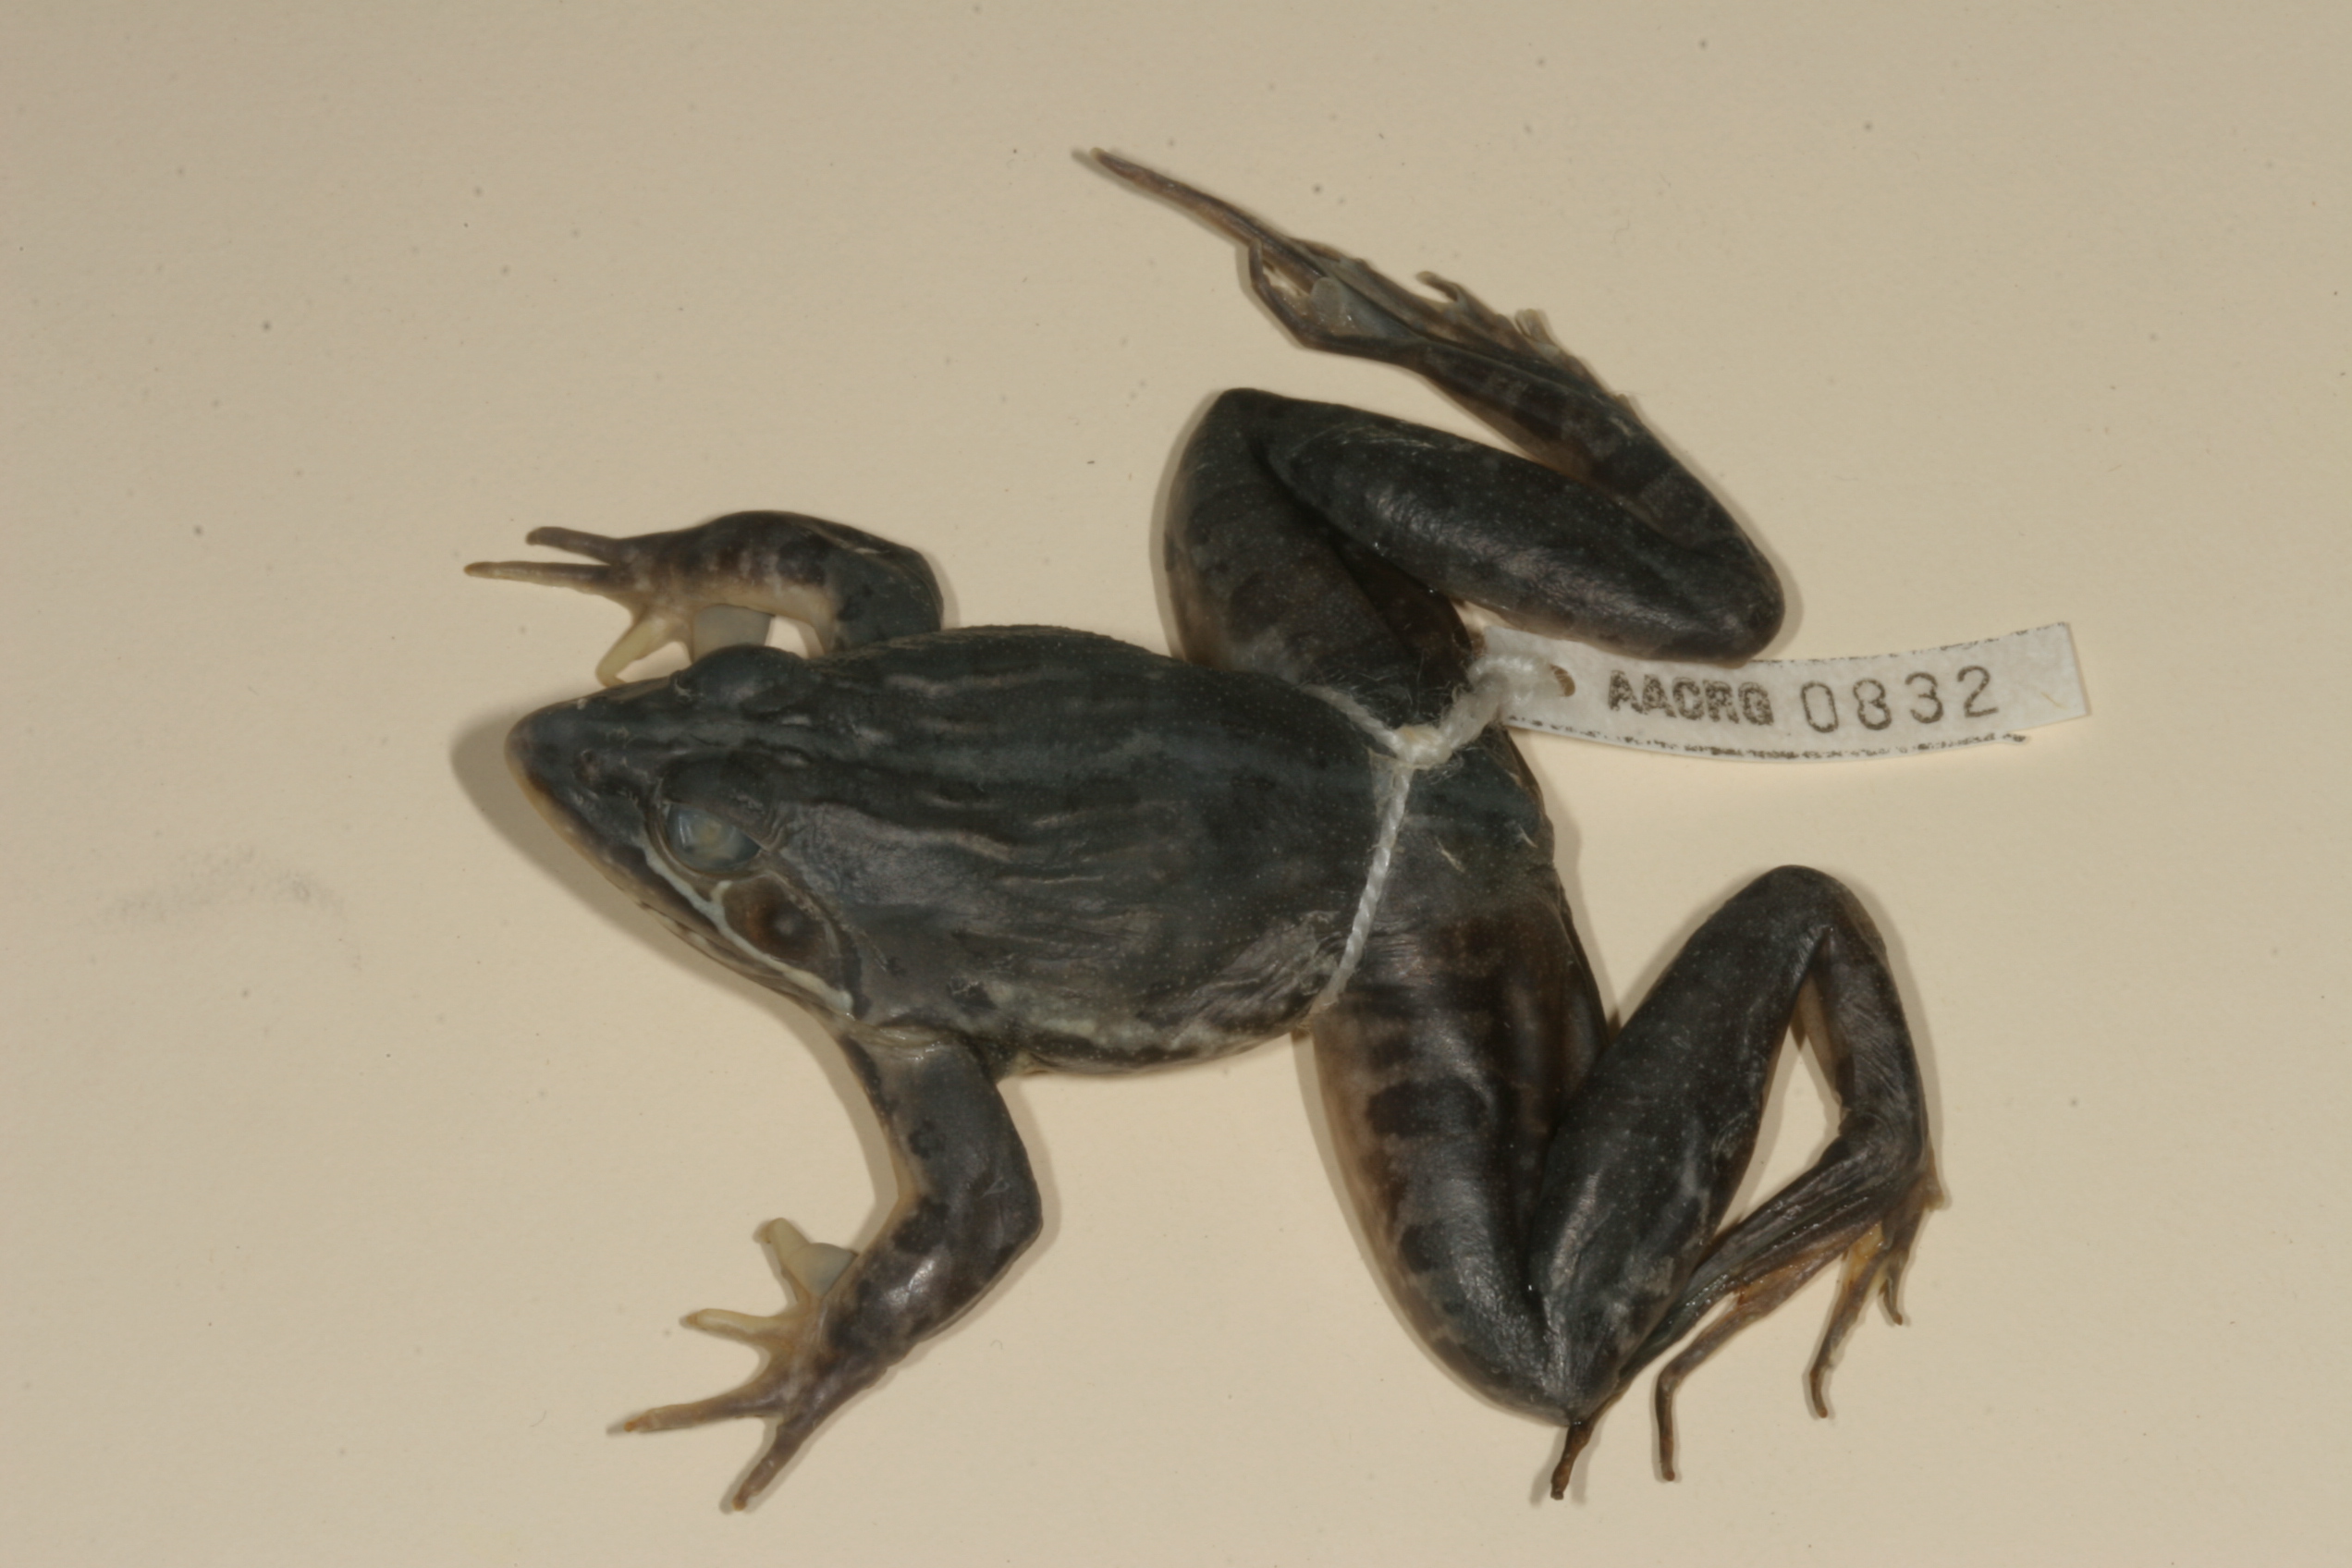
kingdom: Animalia
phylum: Chordata
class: Amphibia
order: Anura
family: Pyxicephalidae
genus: Amietia
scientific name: Amietia fuscigula
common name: Cape rana
